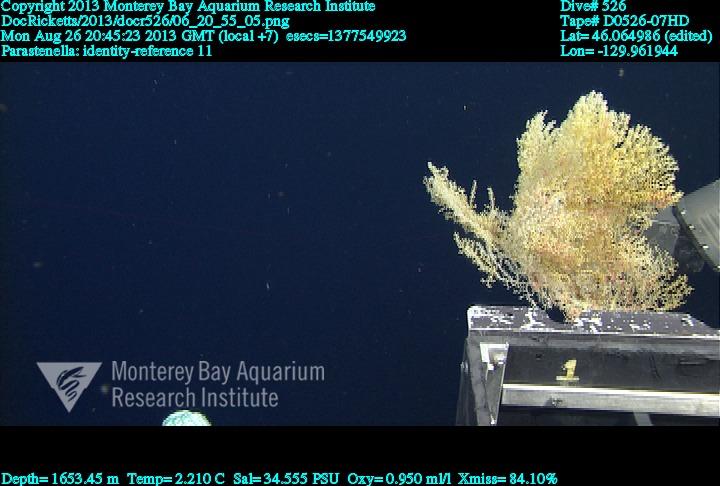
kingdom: Animalia
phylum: Cnidaria
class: Anthozoa
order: Scleralcyonacea
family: Primnoidae
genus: Parastenella
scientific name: Parastenella
